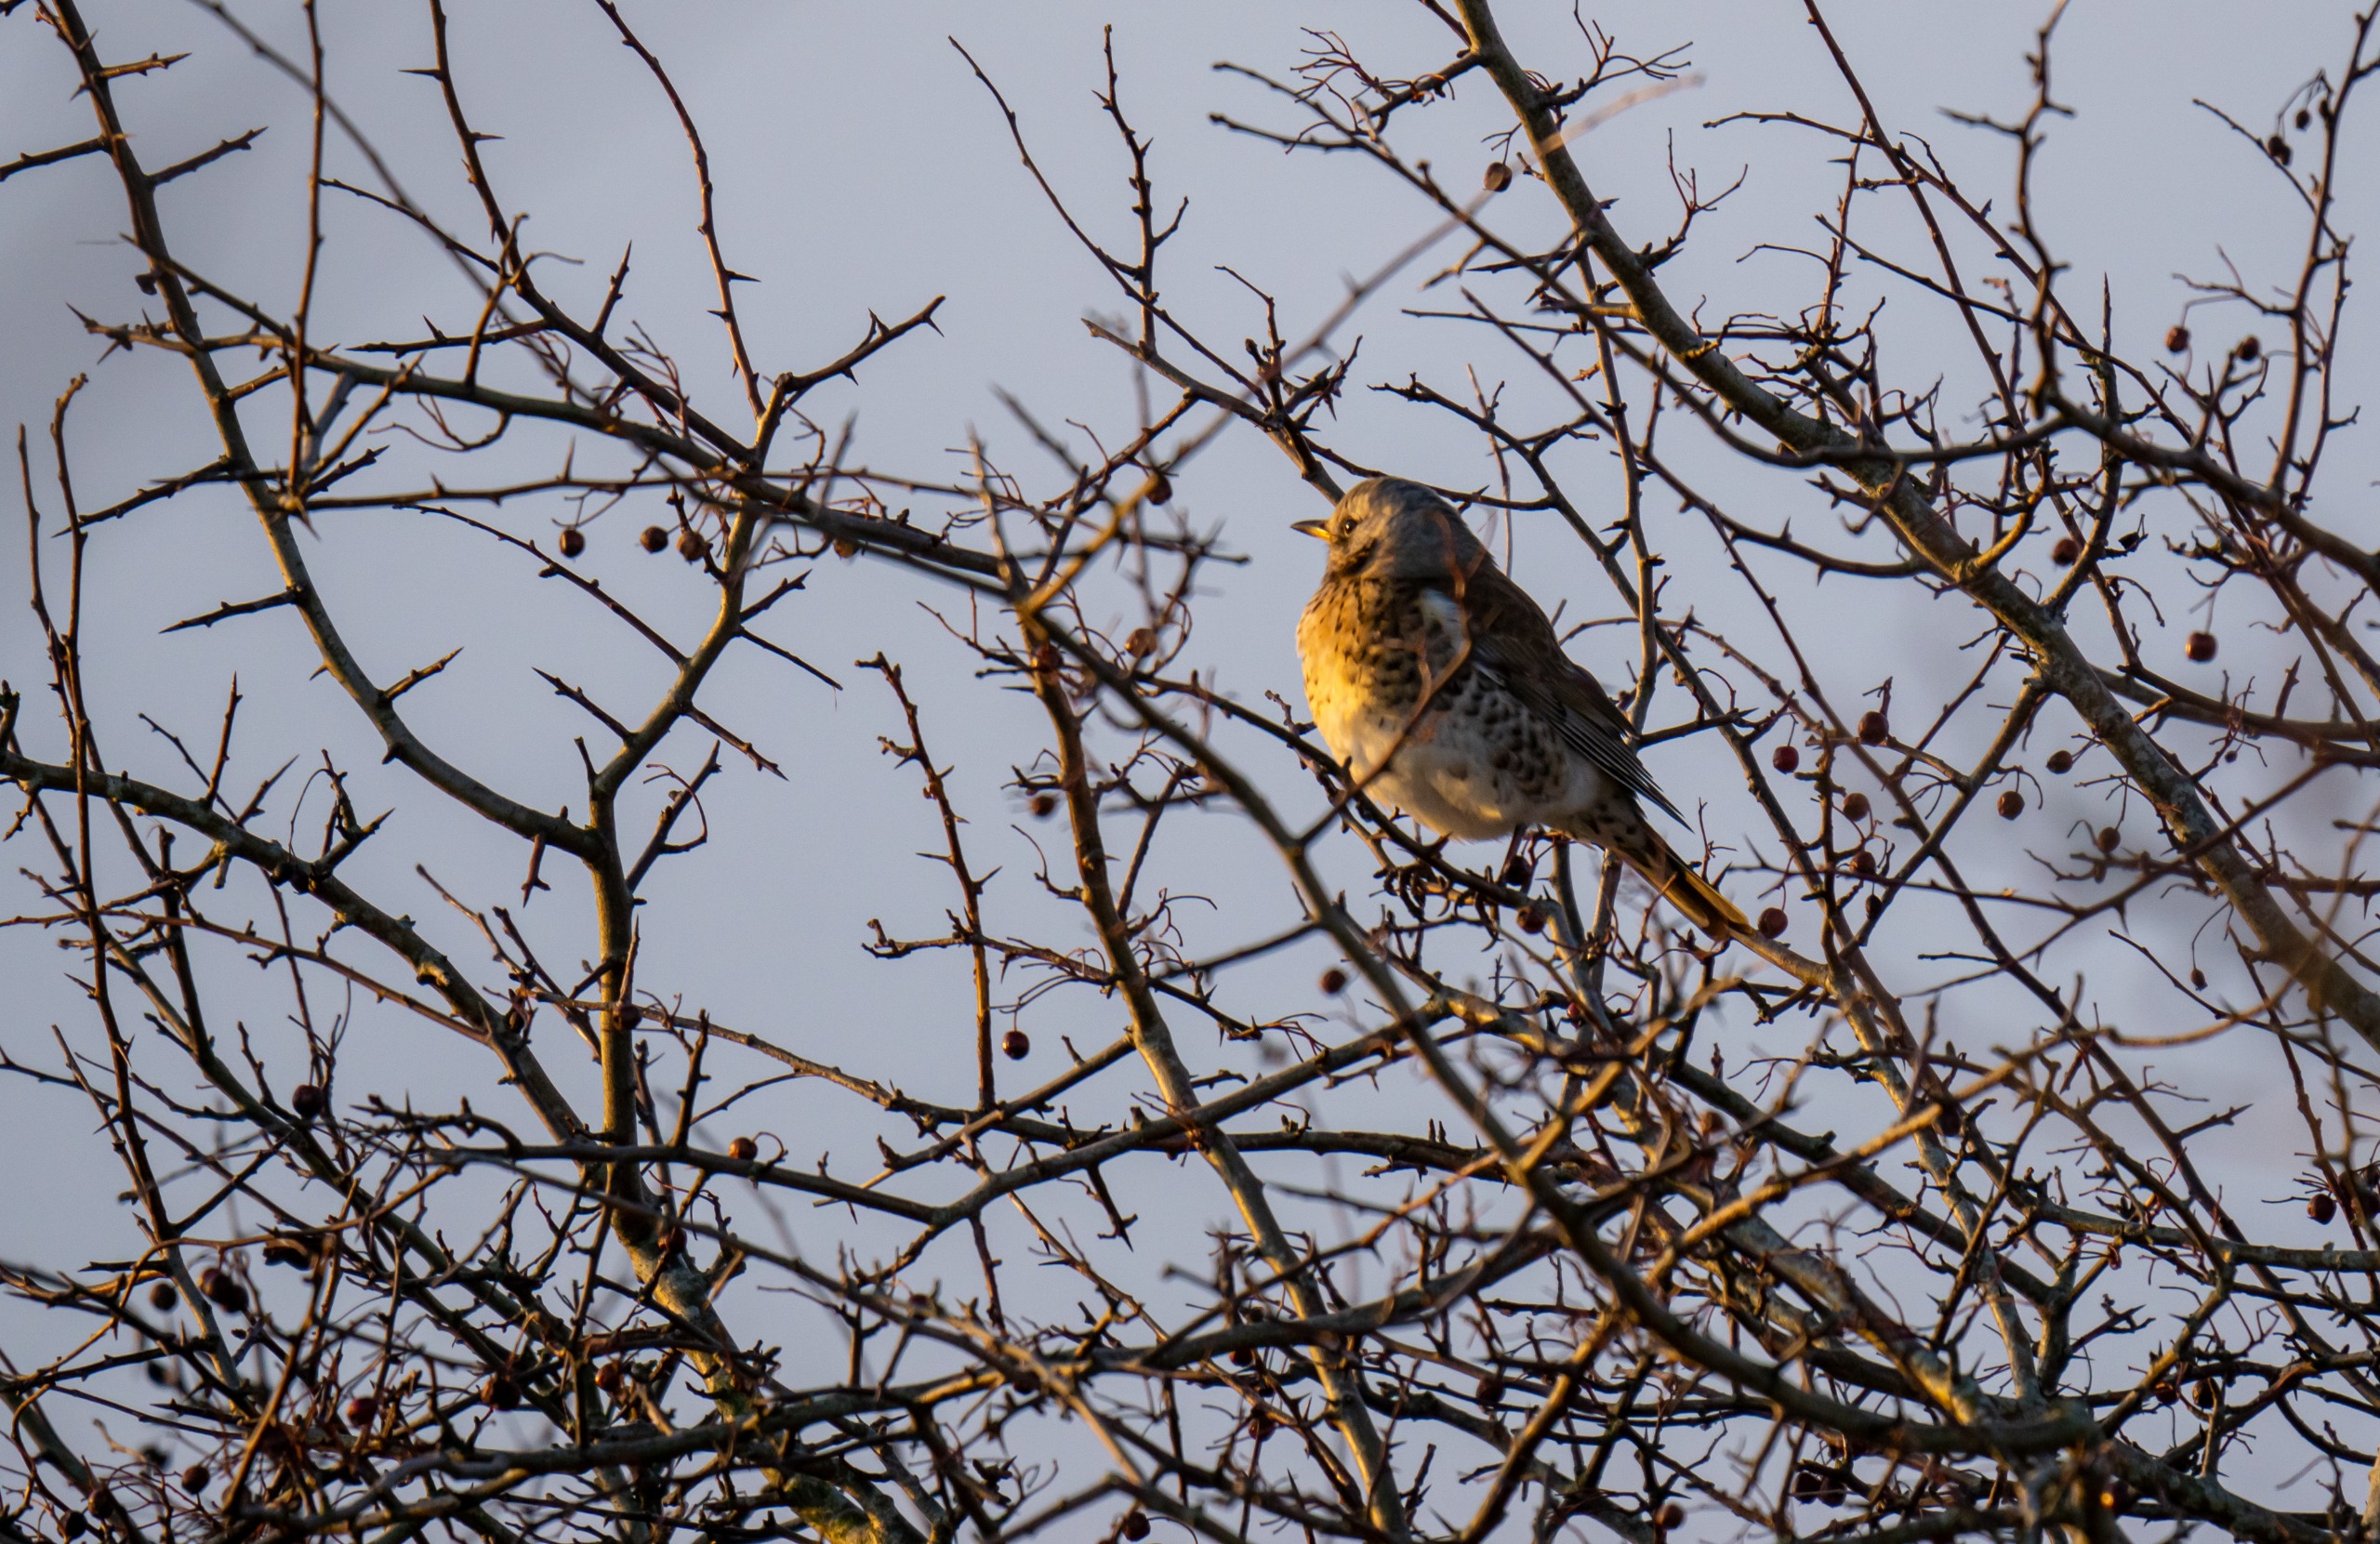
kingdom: Animalia
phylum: Chordata
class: Aves
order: Passeriformes
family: Turdidae
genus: Turdus
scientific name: Turdus pilaris
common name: Sjagger
